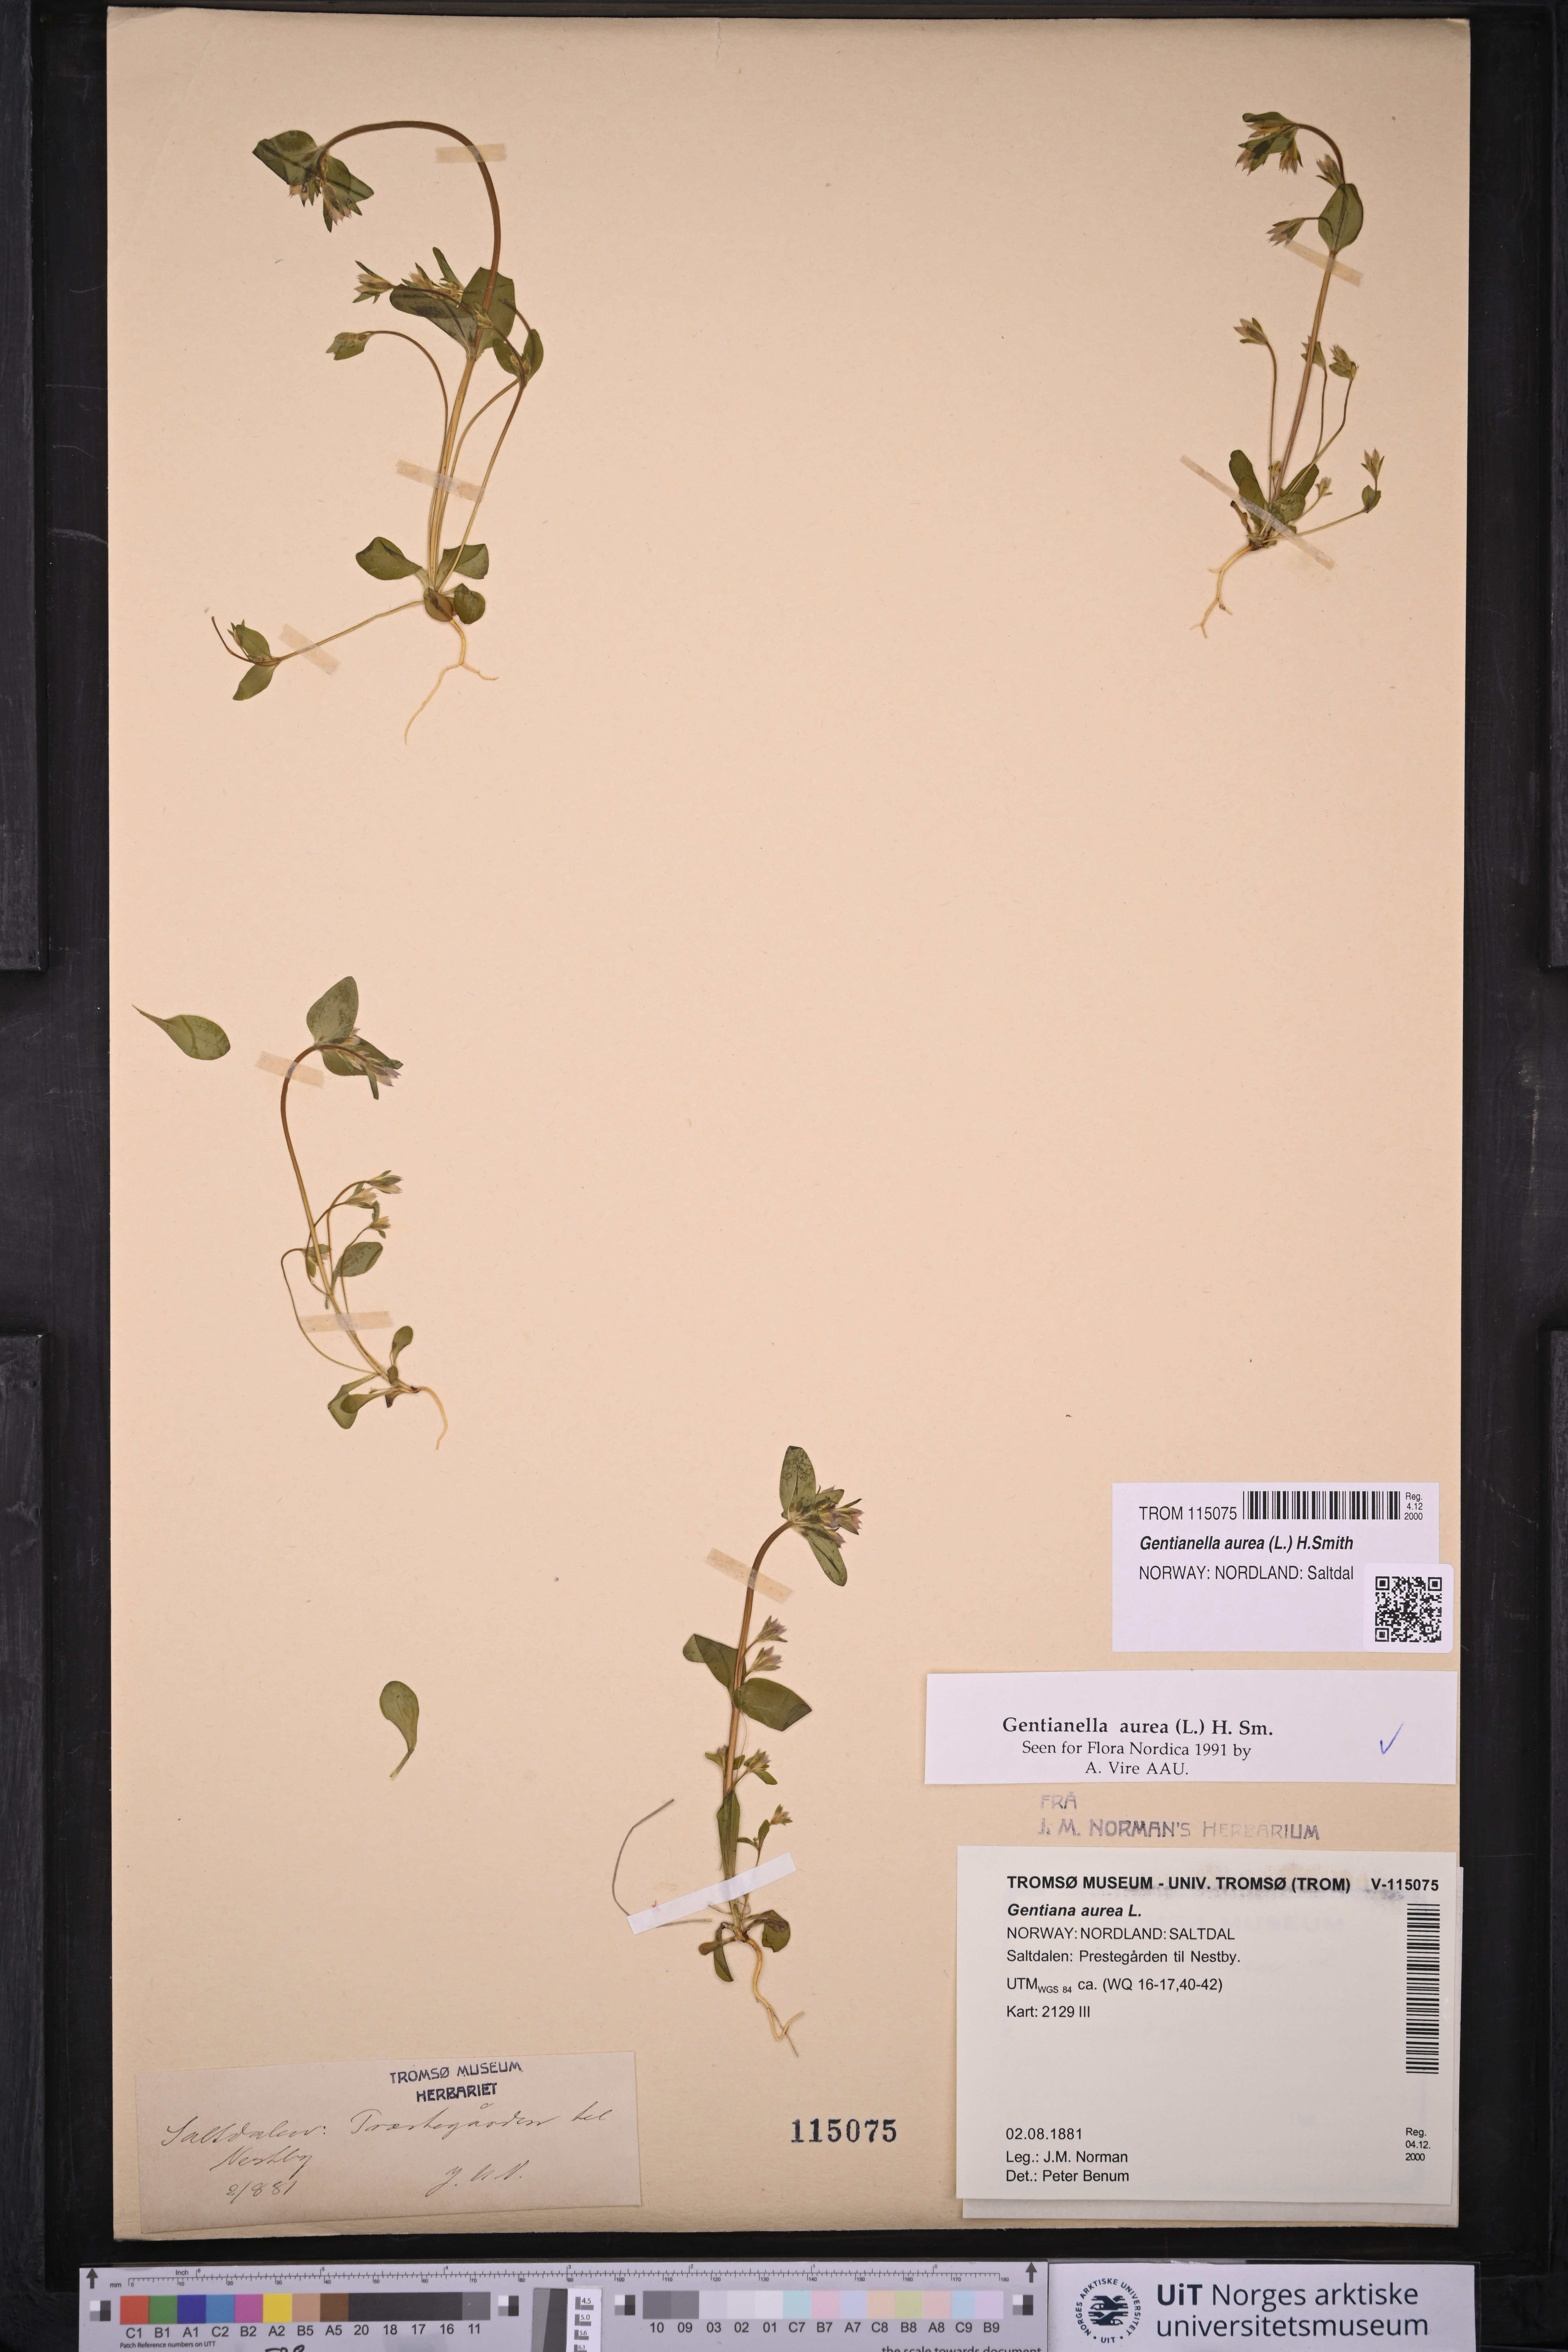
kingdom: Plantae
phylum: Tracheophyta
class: Magnoliopsida
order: Gentianales
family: Gentianaceae
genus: Gentianella
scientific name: Gentianella aurea
